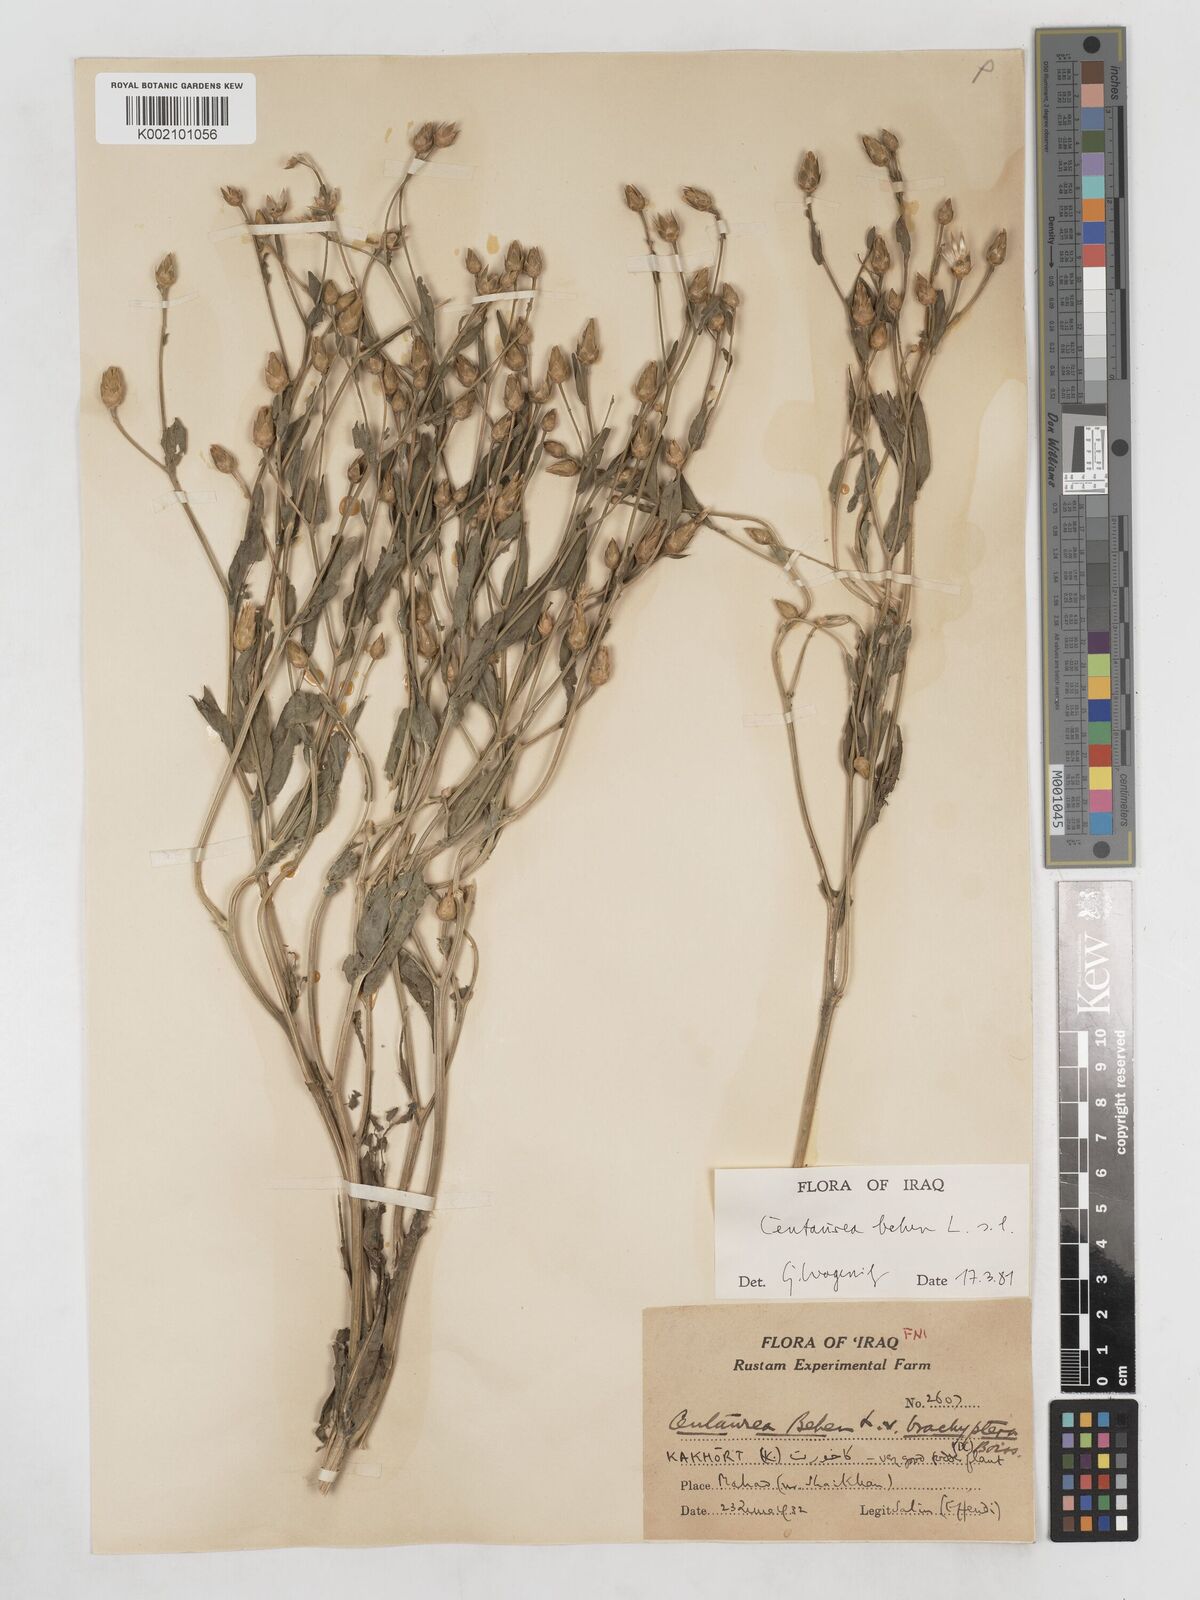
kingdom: Plantae
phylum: Tracheophyta
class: Magnoliopsida
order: Asterales
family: Asteraceae
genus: Centaurea
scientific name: Centaurea behen
